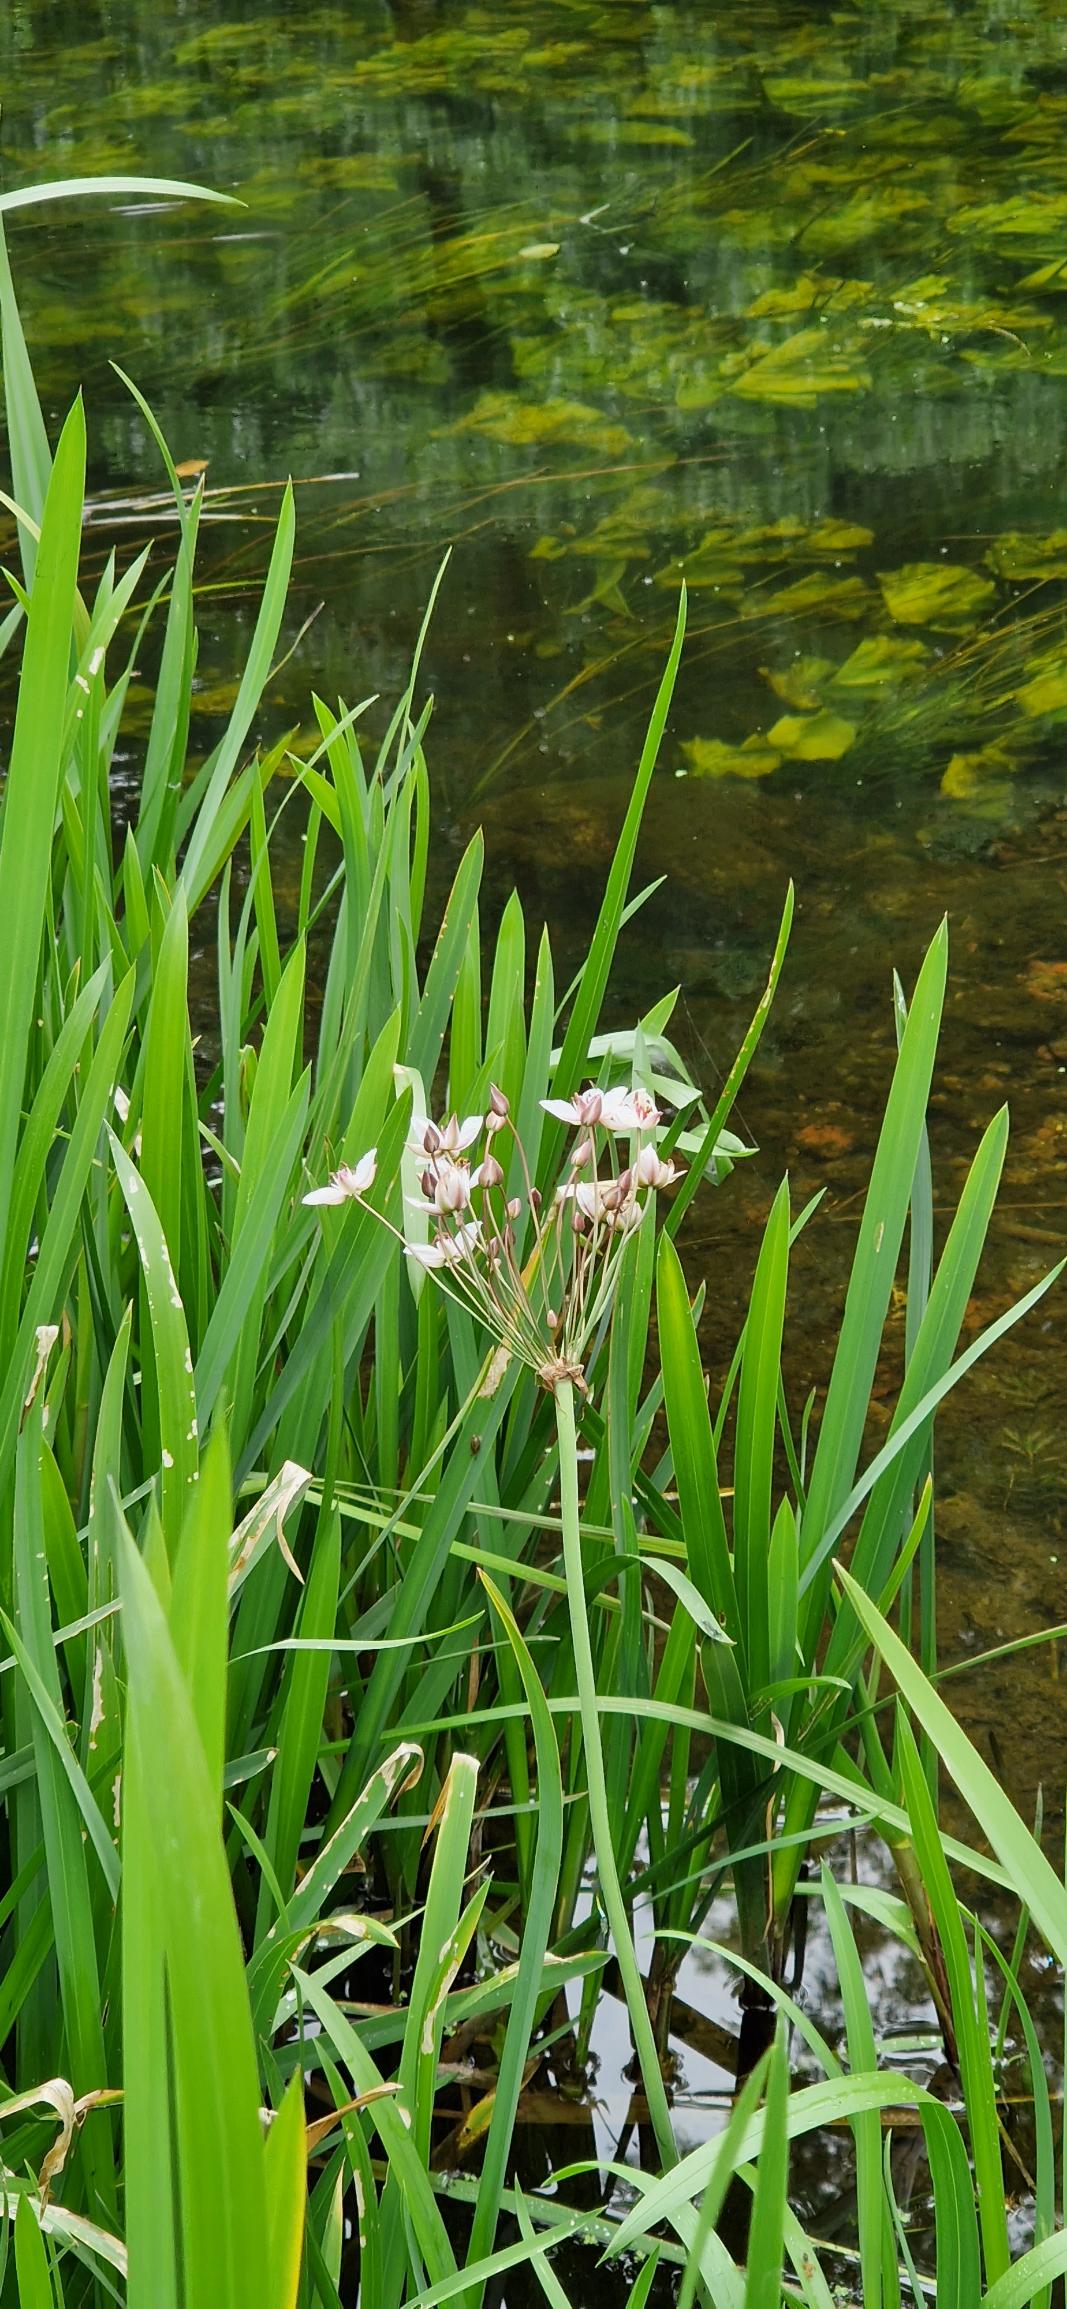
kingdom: Plantae
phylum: Tracheophyta
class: Liliopsida
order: Alismatales
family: Butomaceae
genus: Butomus
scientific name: Butomus umbellatus
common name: Brudelys
